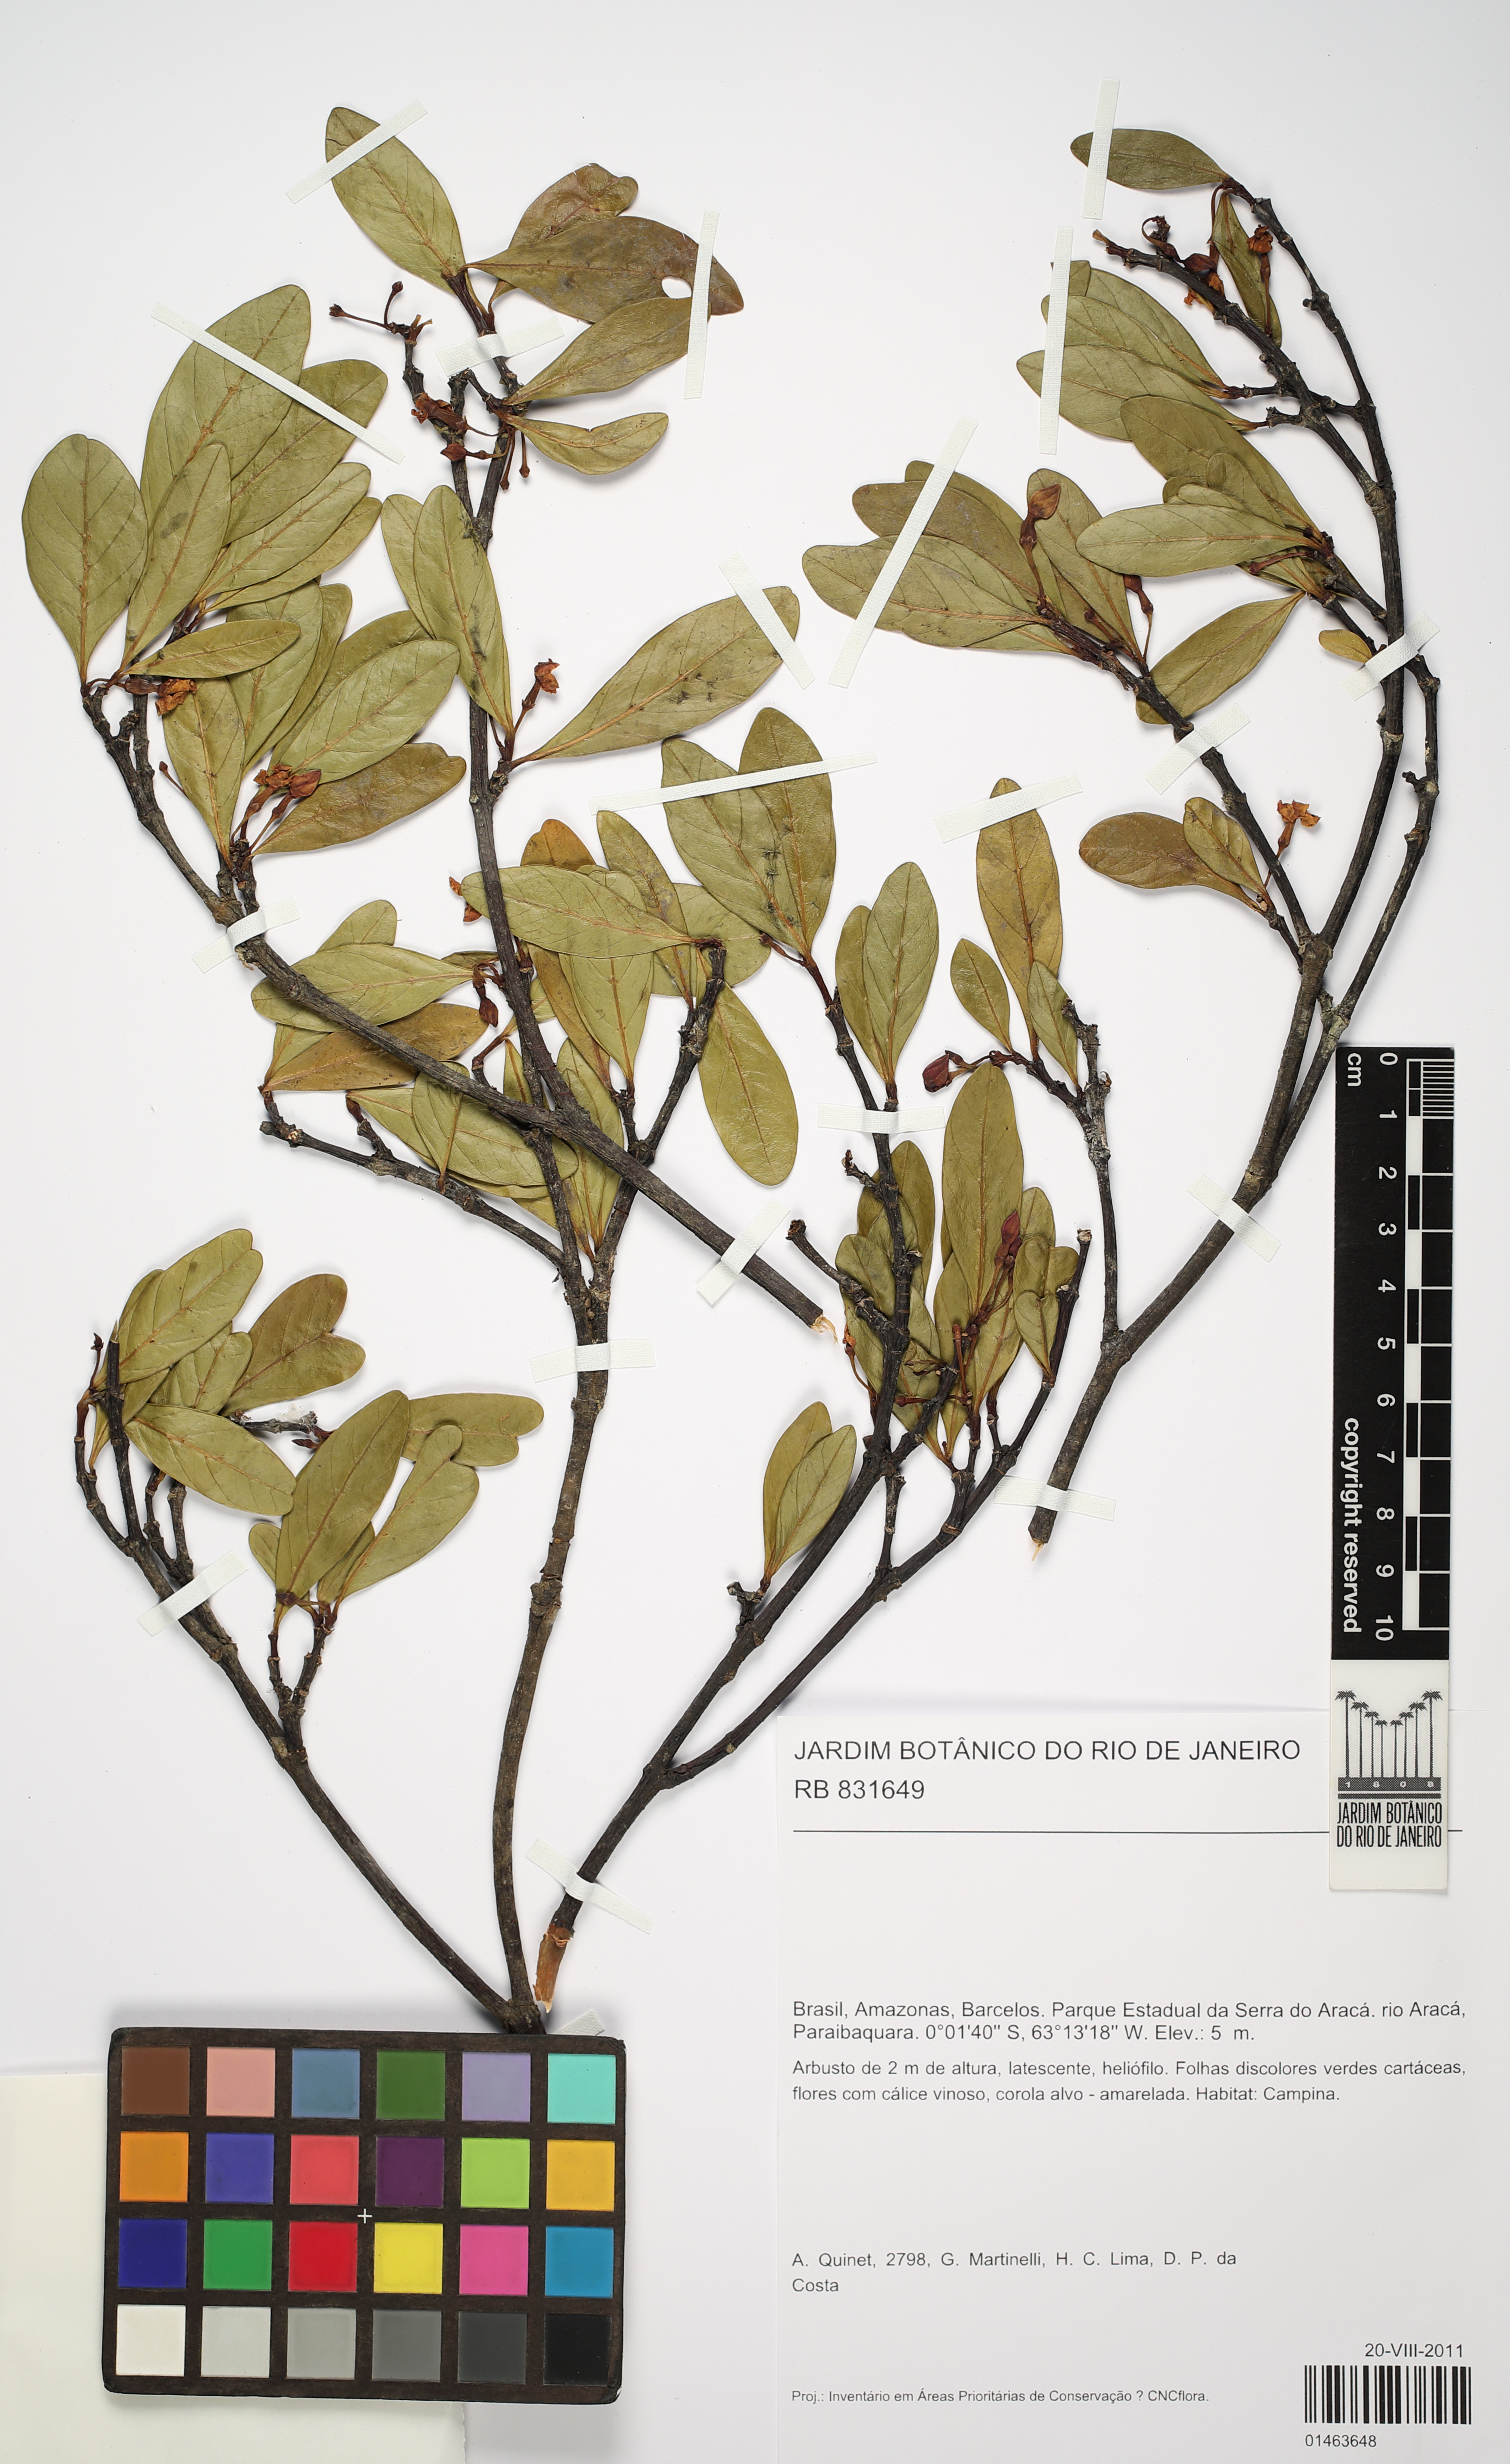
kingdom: Plantae
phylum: Tracheophyta
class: Magnoliopsida
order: Gentianales
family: Apocynaceae
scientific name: Apocynaceae
